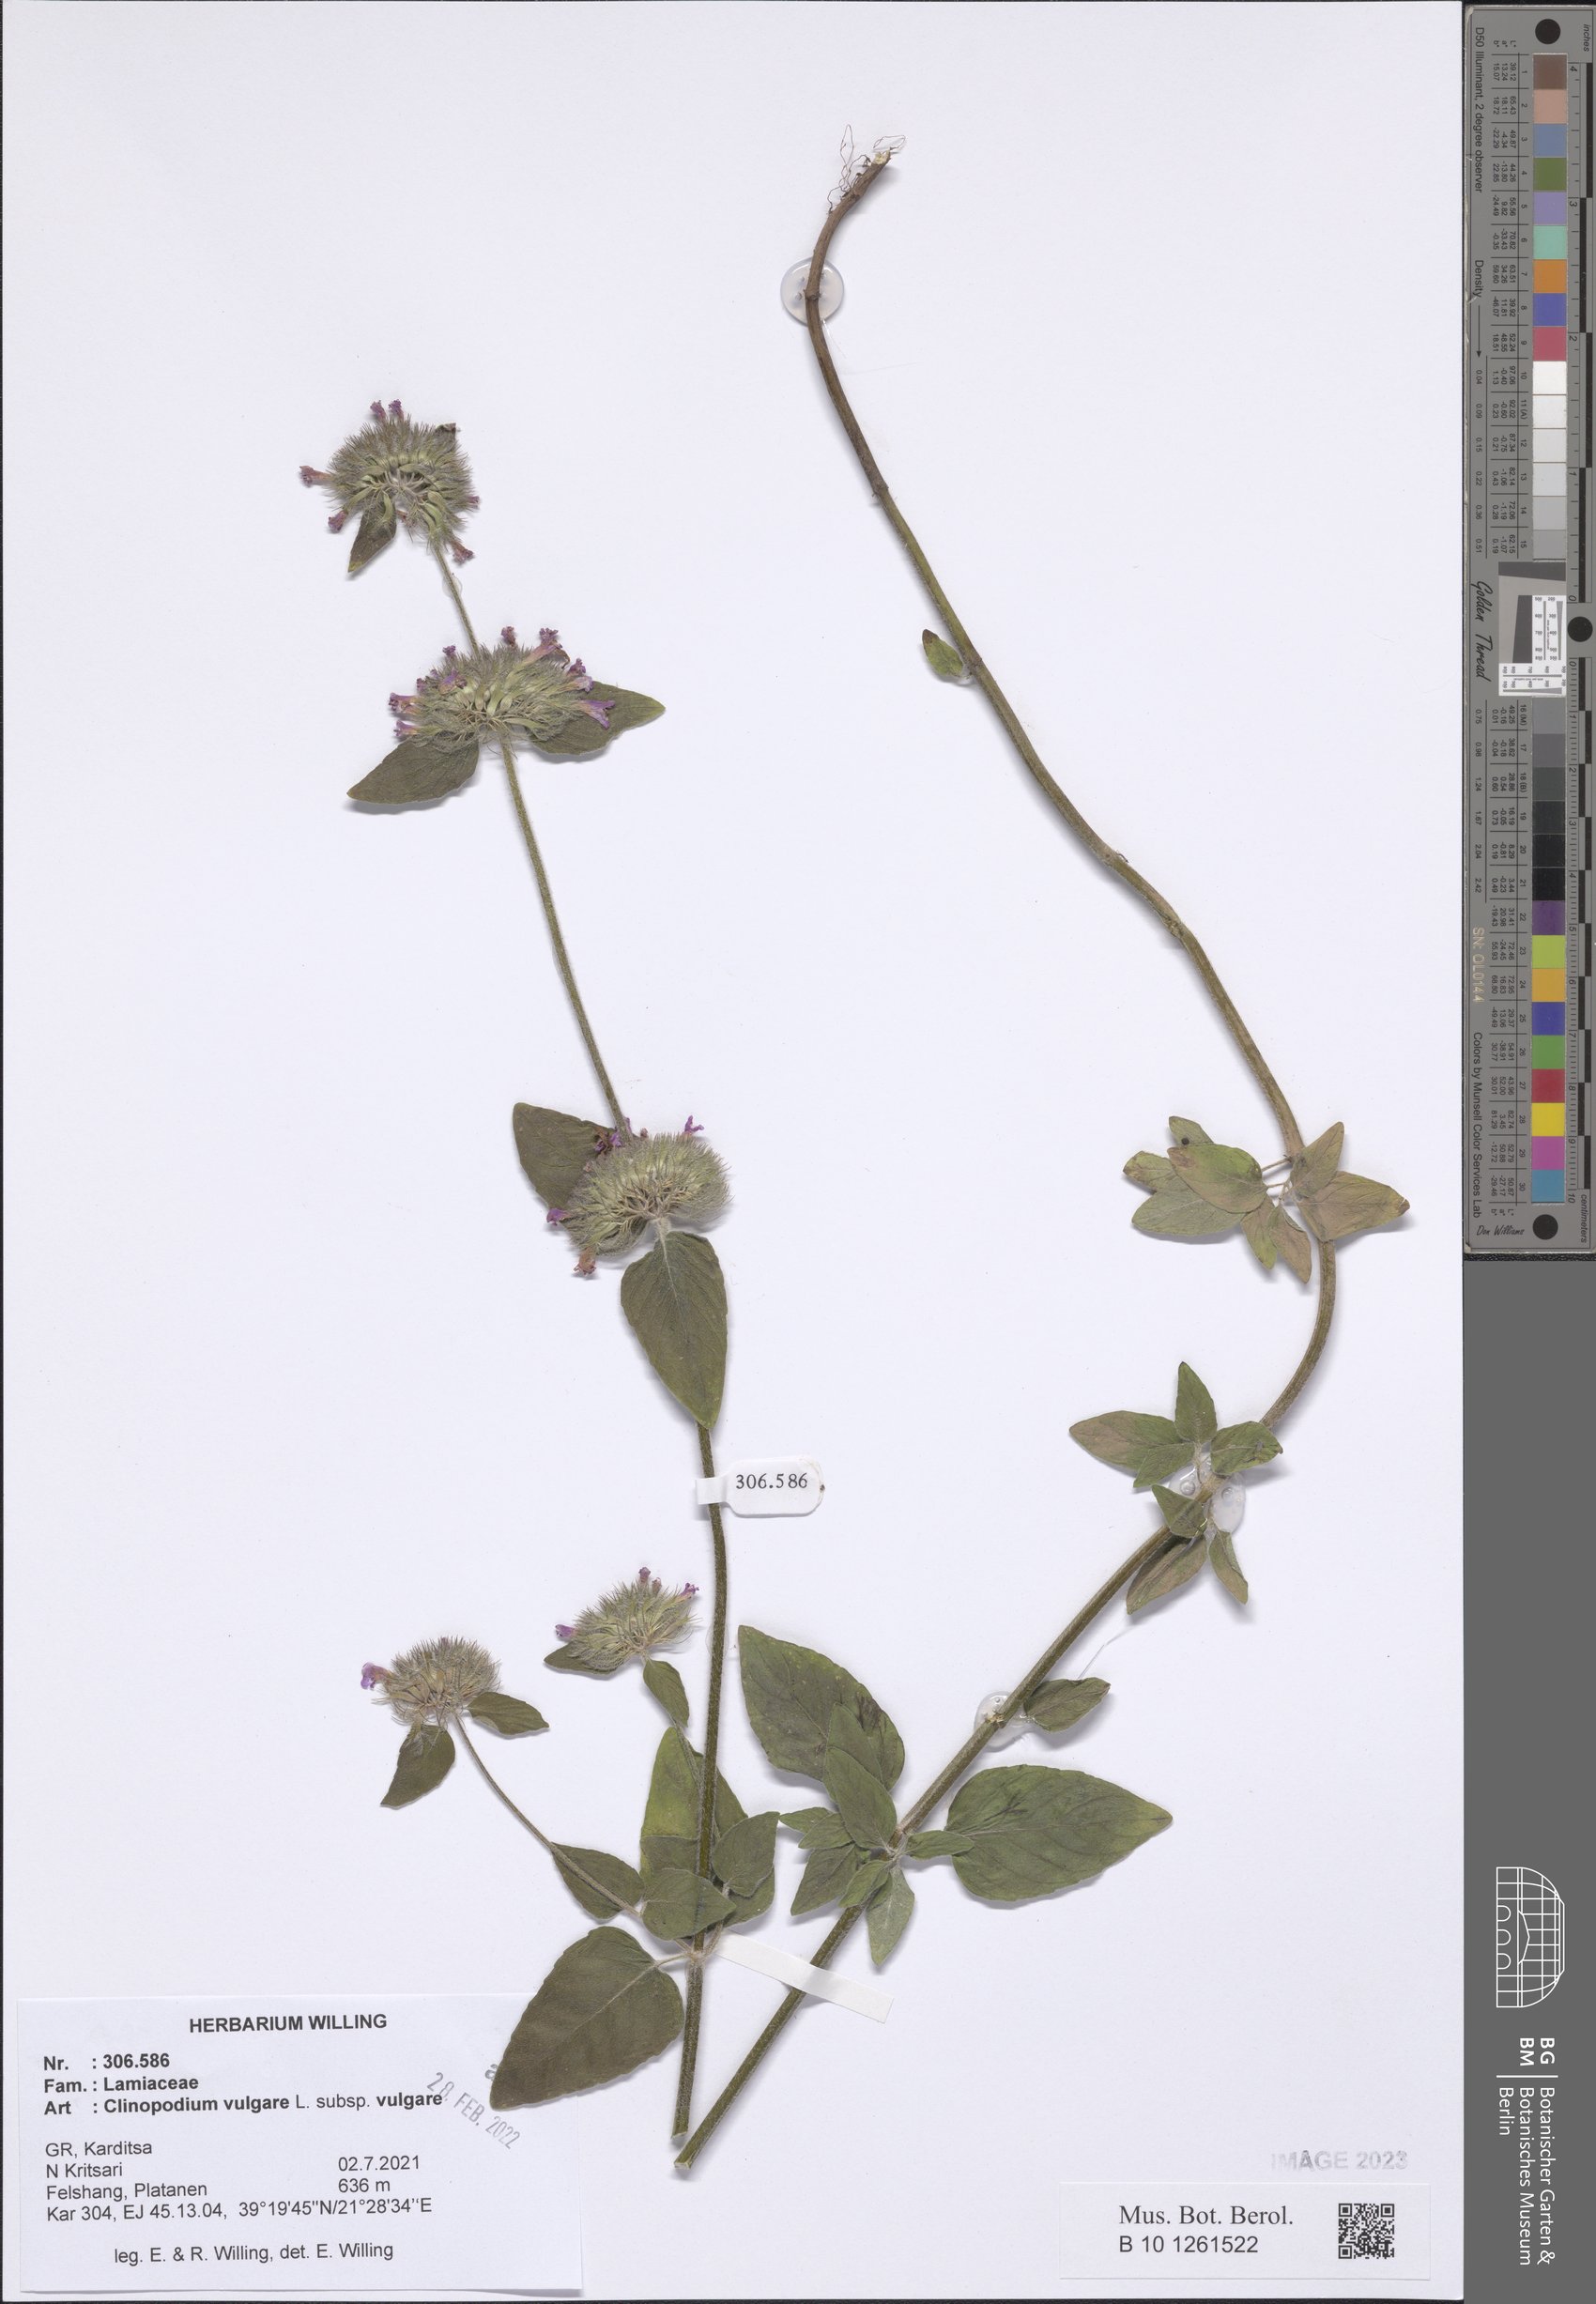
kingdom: Plantae
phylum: Tracheophyta
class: Magnoliopsida
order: Lamiales
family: Lamiaceae
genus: Clinopodium
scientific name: Clinopodium vulgare
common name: Wild basil
